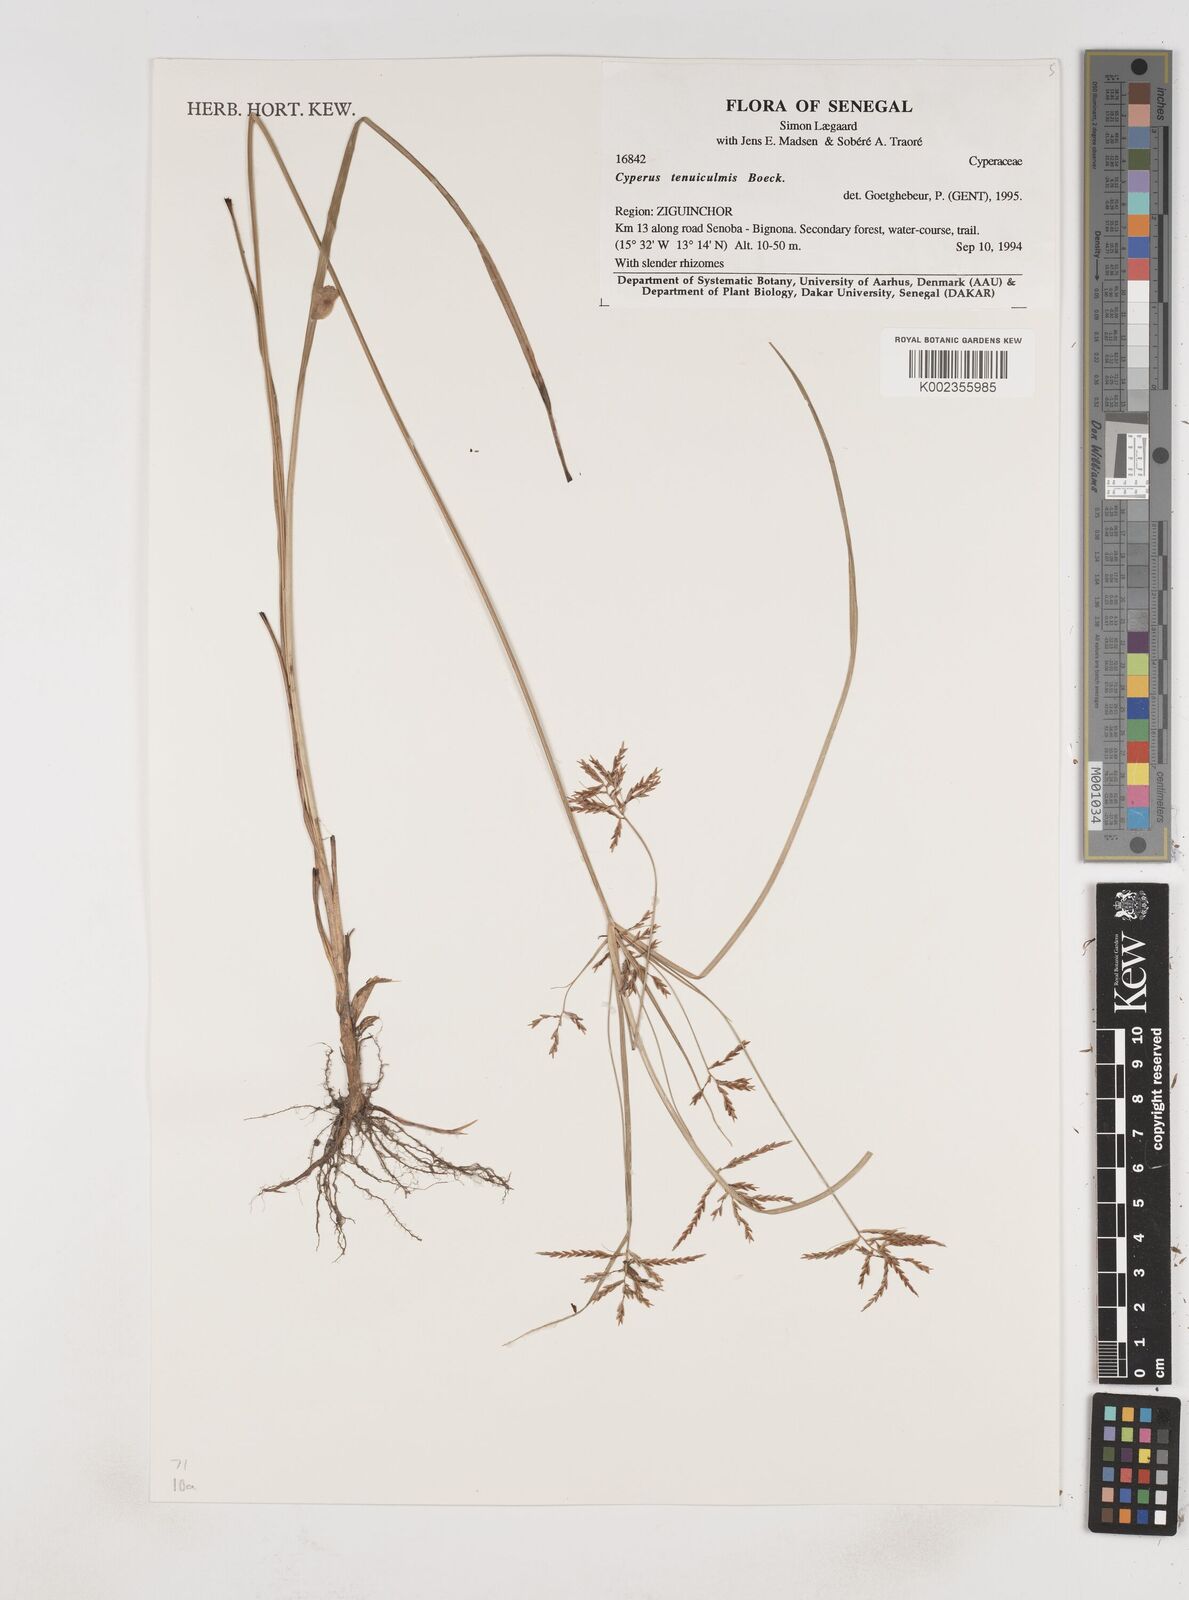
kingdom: Plantae
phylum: Tracheophyta
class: Liliopsida
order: Poales
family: Cyperaceae
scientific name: Cyperaceae
